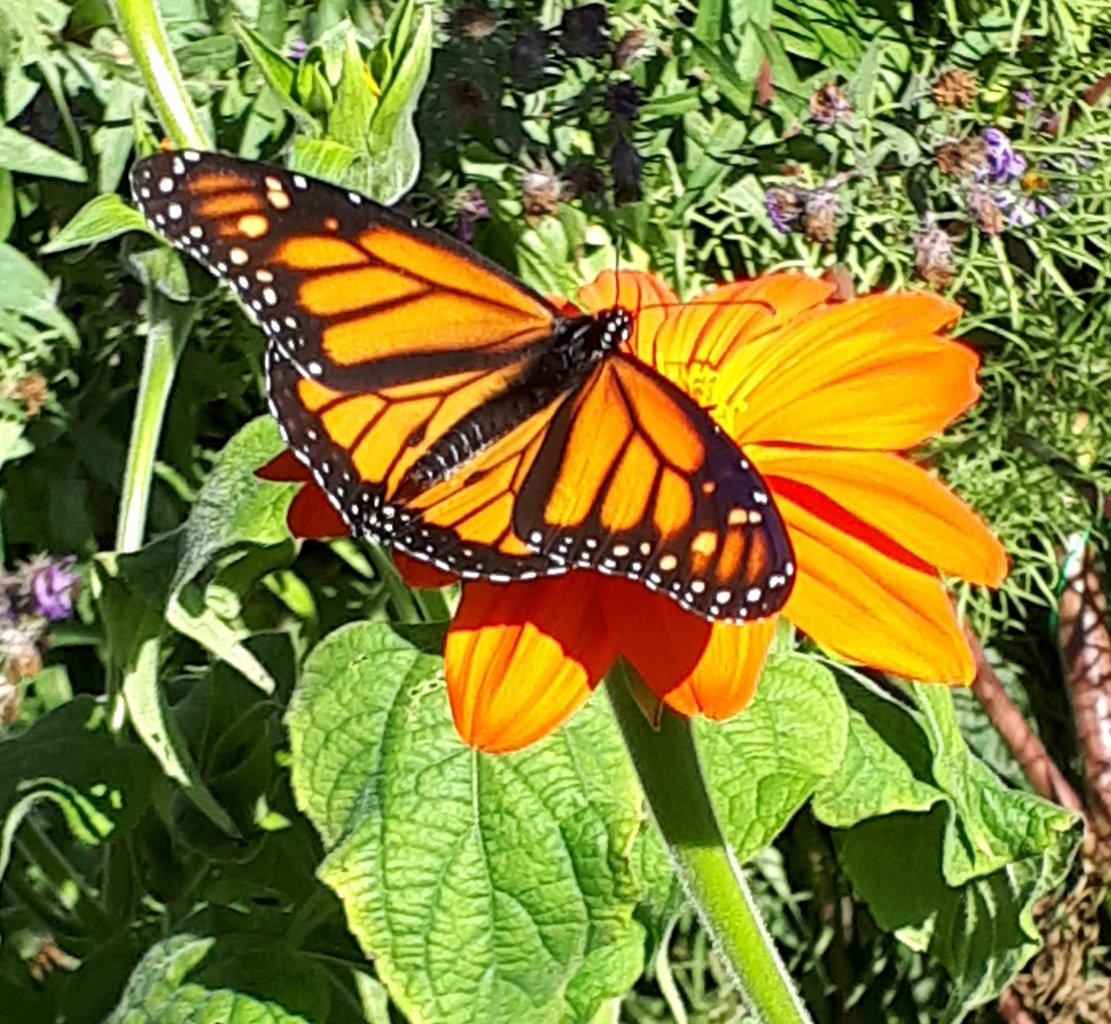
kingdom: Animalia
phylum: Arthropoda
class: Insecta
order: Lepidoptera
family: Nymphalidae
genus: Danaus
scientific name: Danaus plexippus
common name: Monarch
